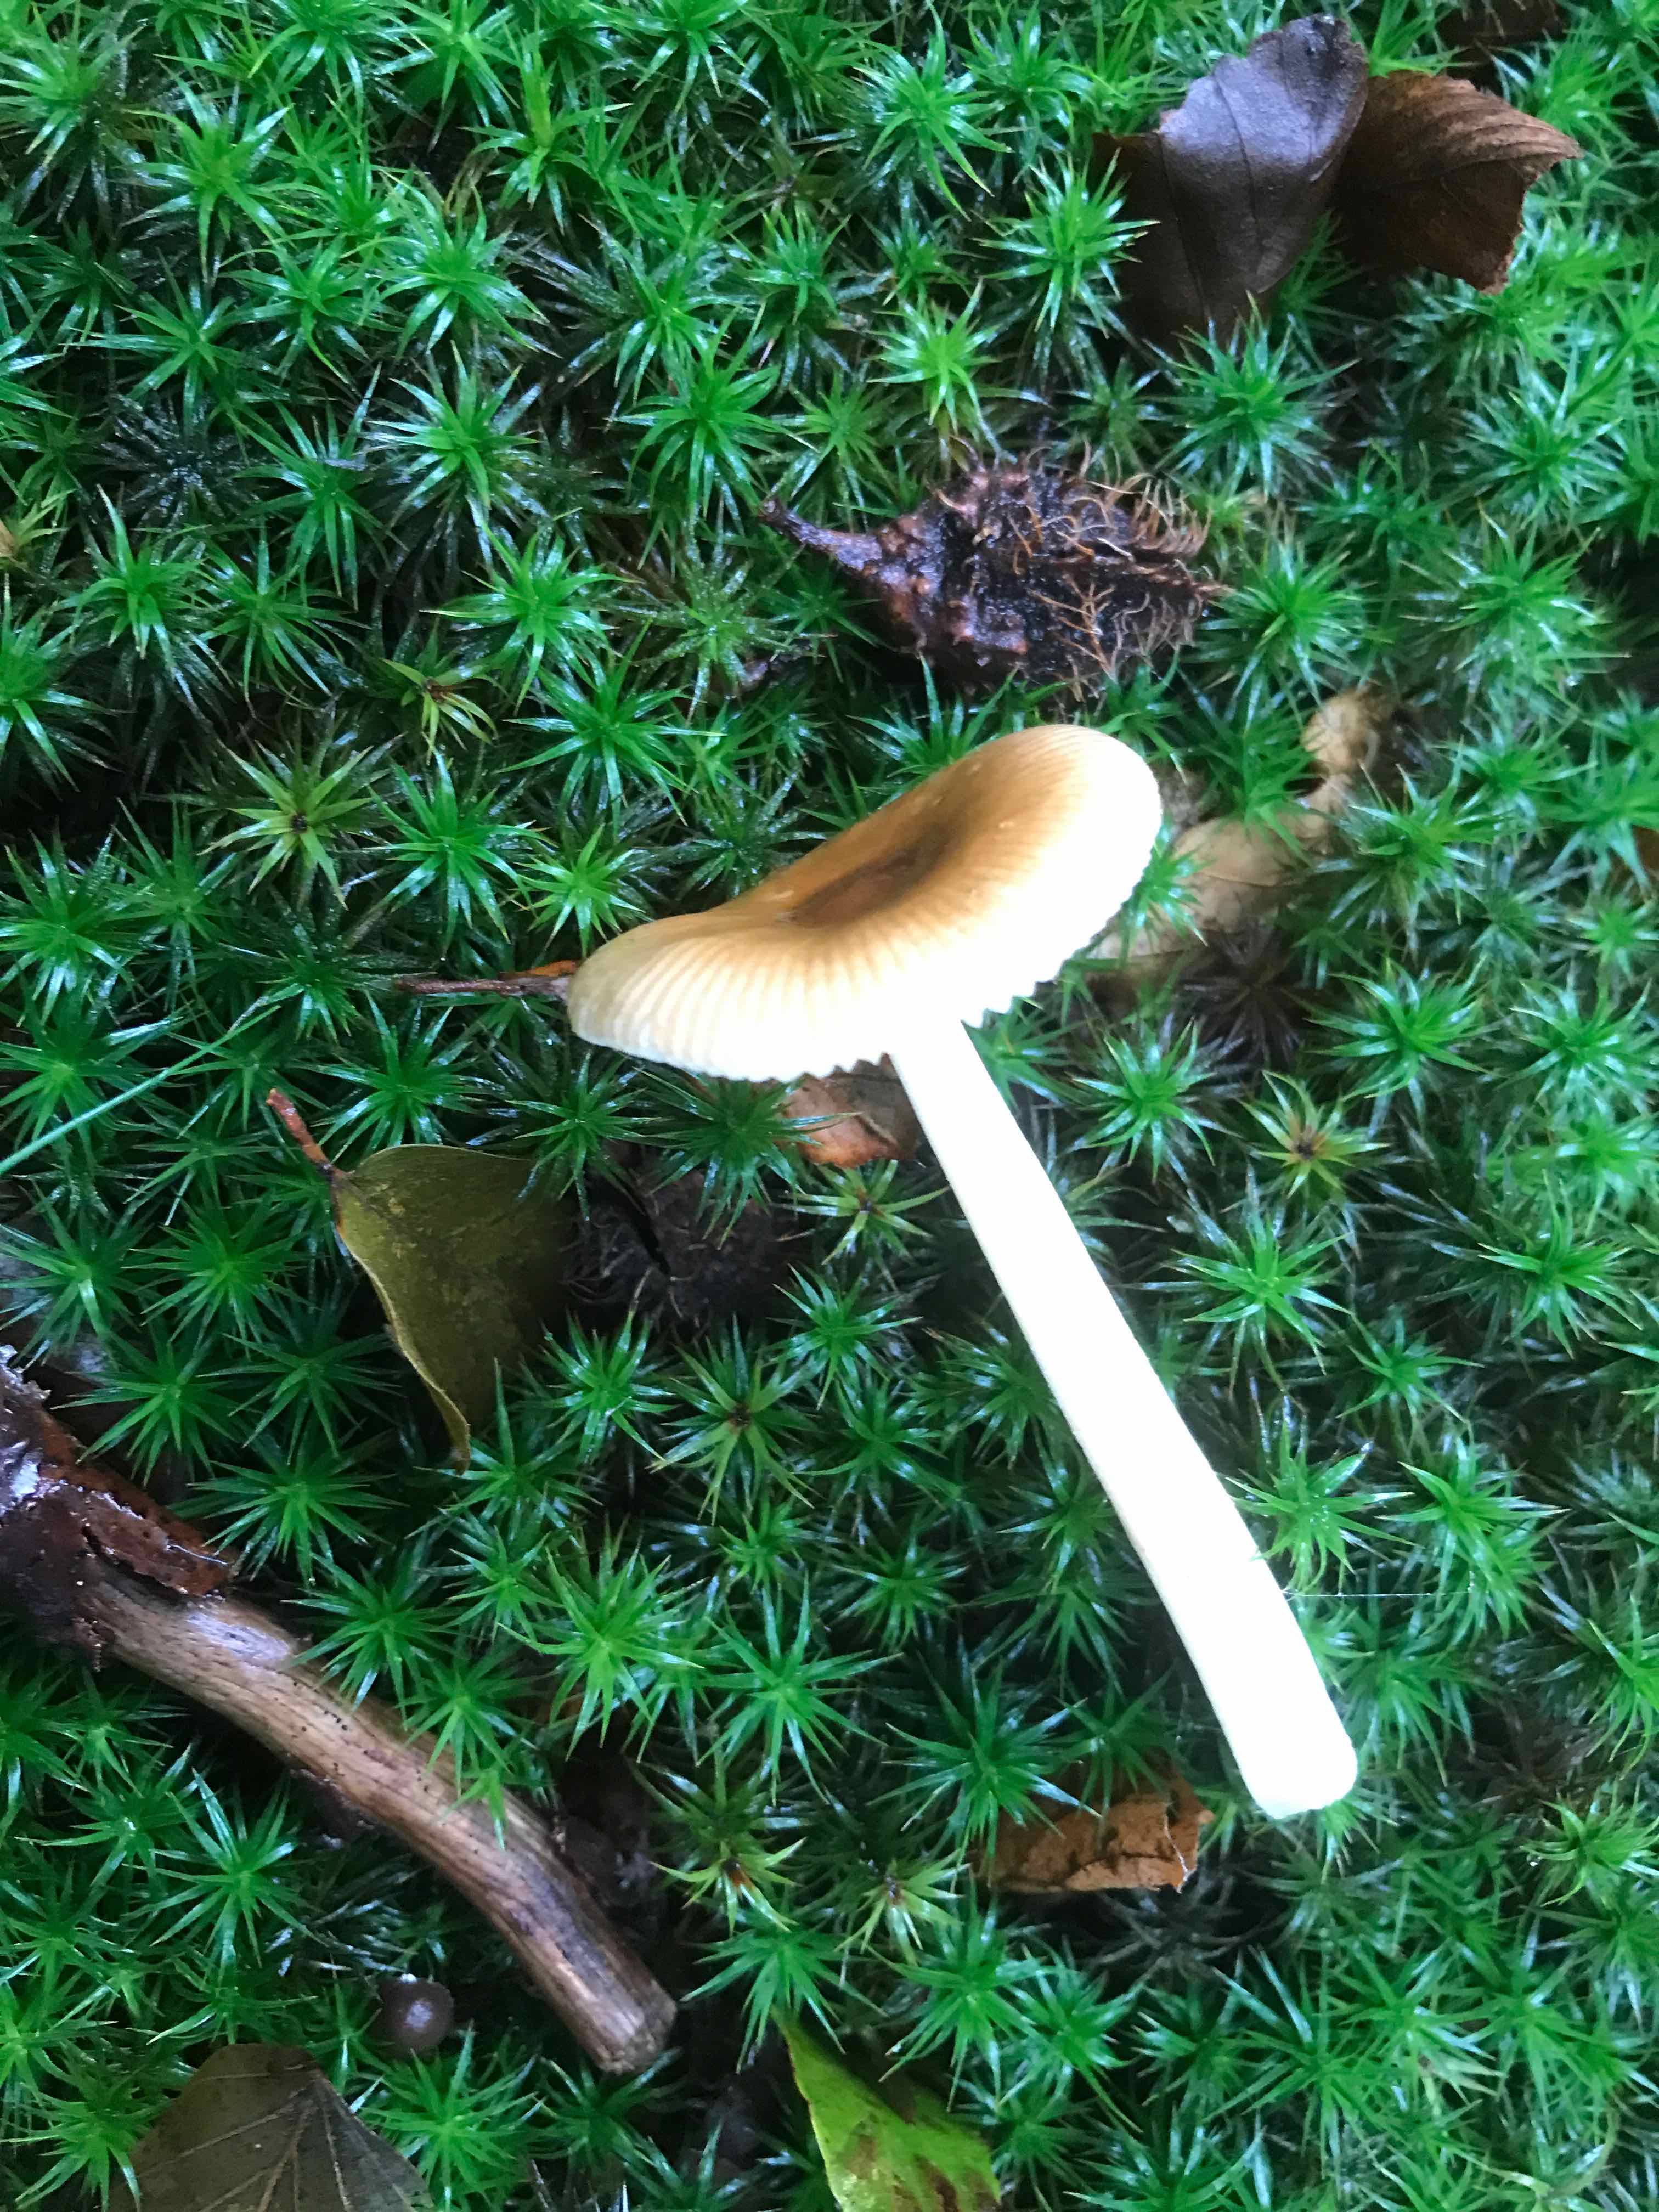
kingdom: Fungi
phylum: Basidiomycota
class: Agaricomycetes
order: Agaricales
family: Amanitaceae
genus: Amanita
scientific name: Amanita fulva
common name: brun kam-fluesvamp
